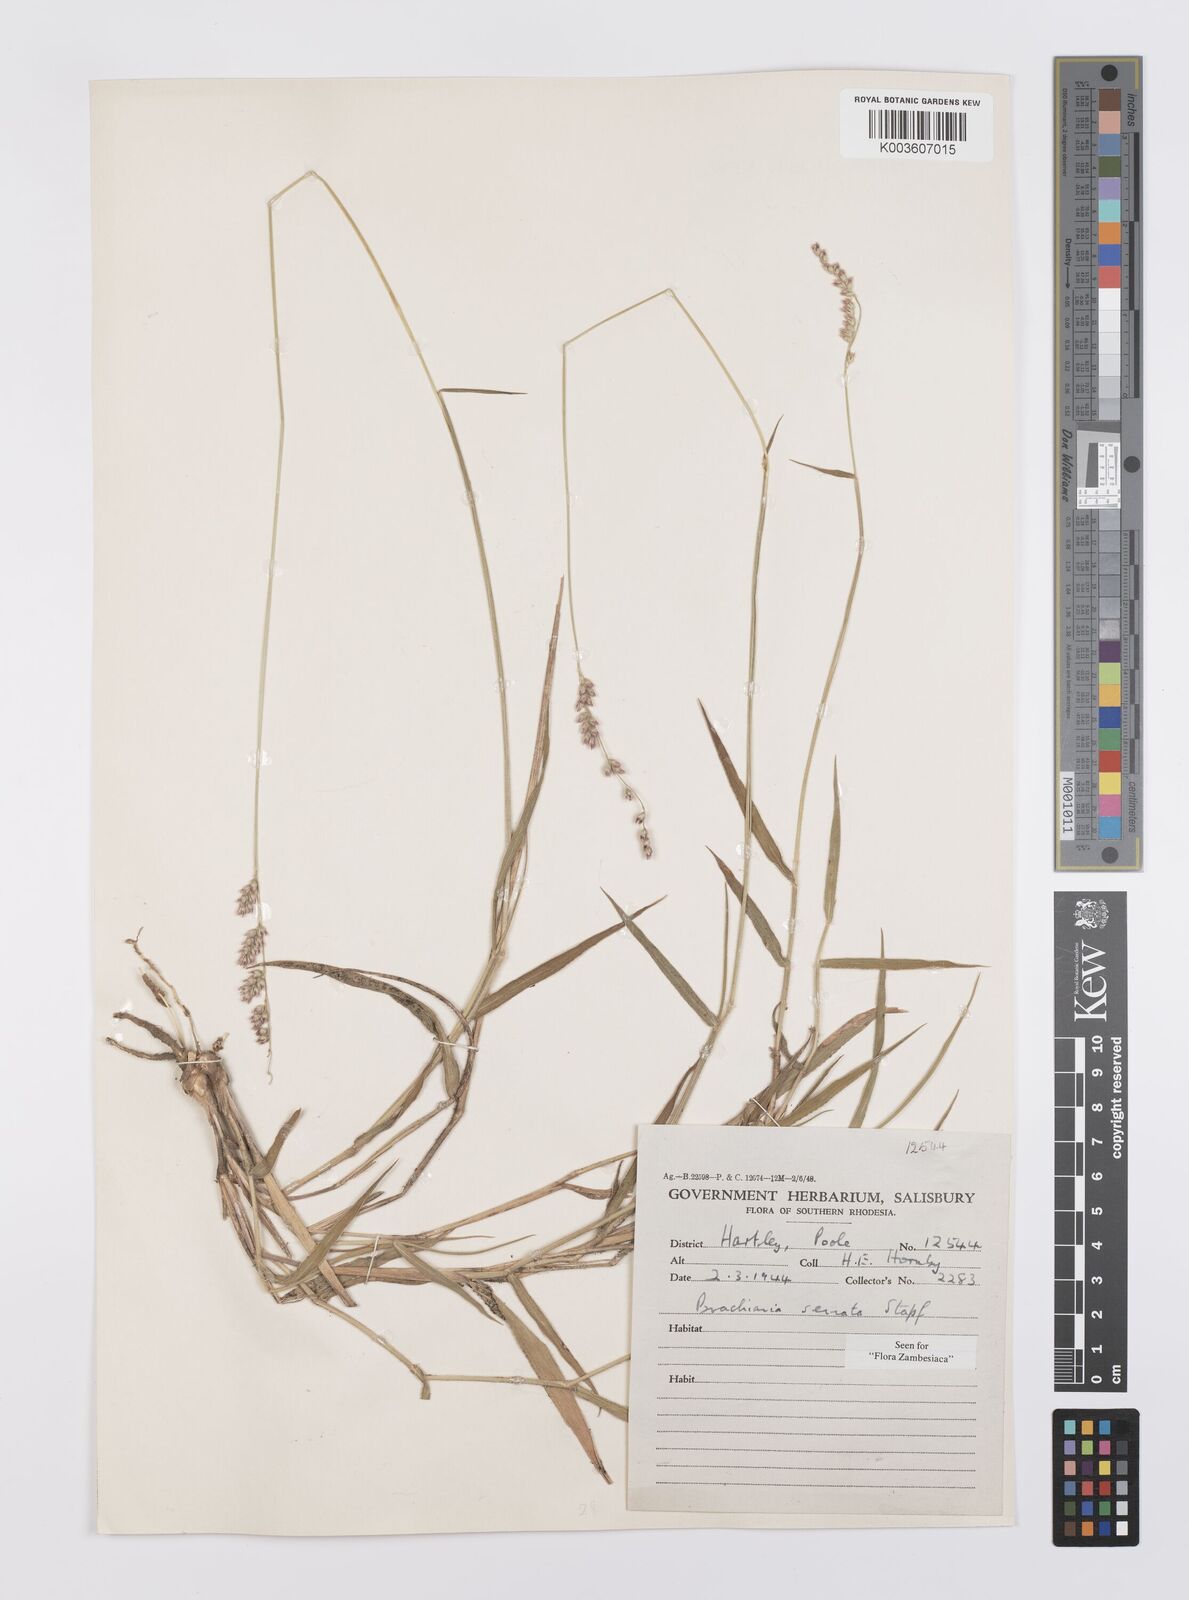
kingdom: Plantae
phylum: Tracheophyta
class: Liliopsida
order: Poales
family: Poaceae
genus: Urochloa
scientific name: Urochloa serrata
